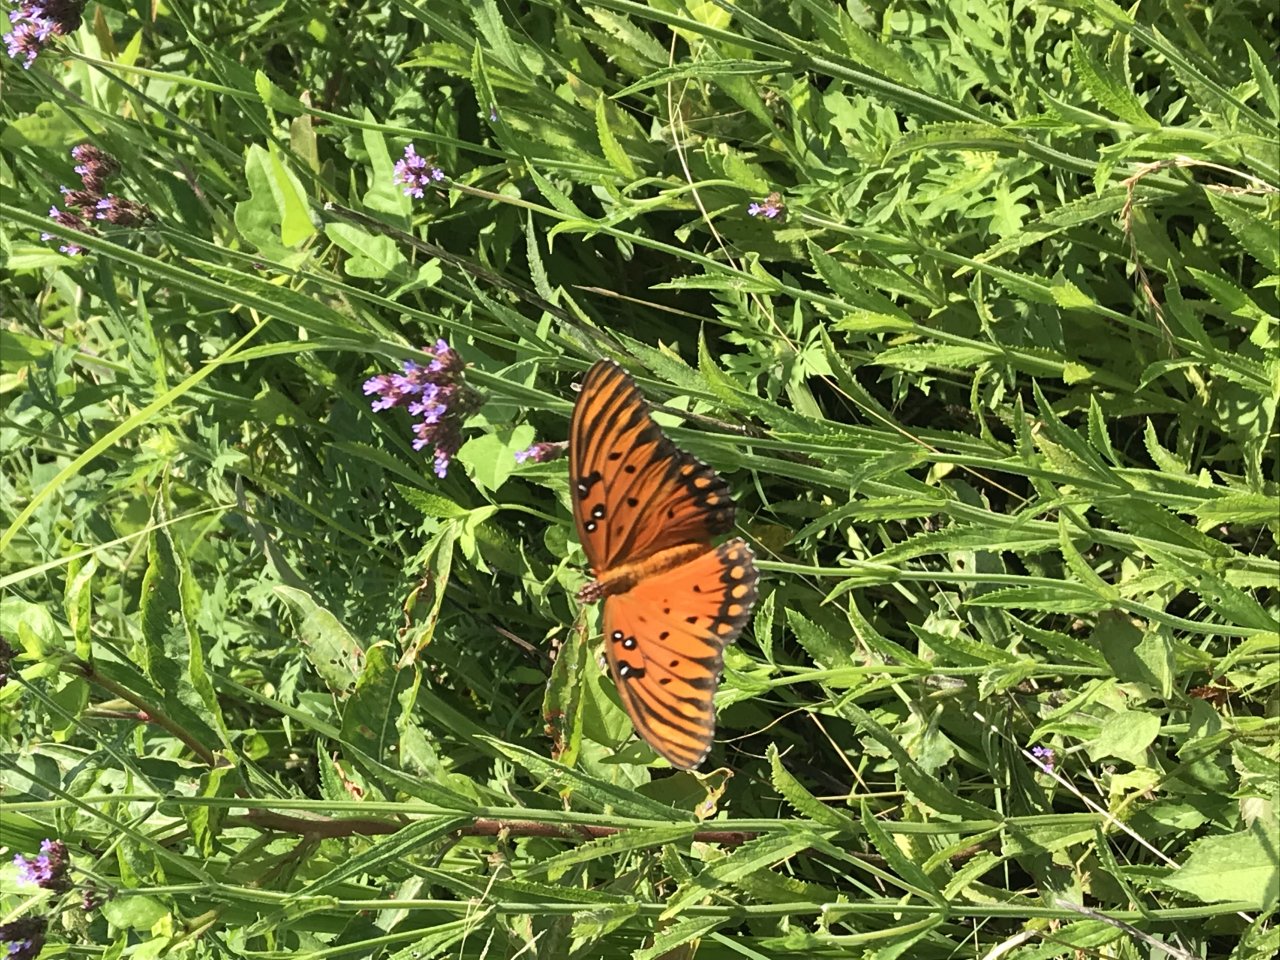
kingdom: Animalia
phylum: Arthropoda
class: Insecta
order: Lepidoptera
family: Nymphalidae
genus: Dione
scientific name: Dione vanillae
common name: Gulf Fritillary
